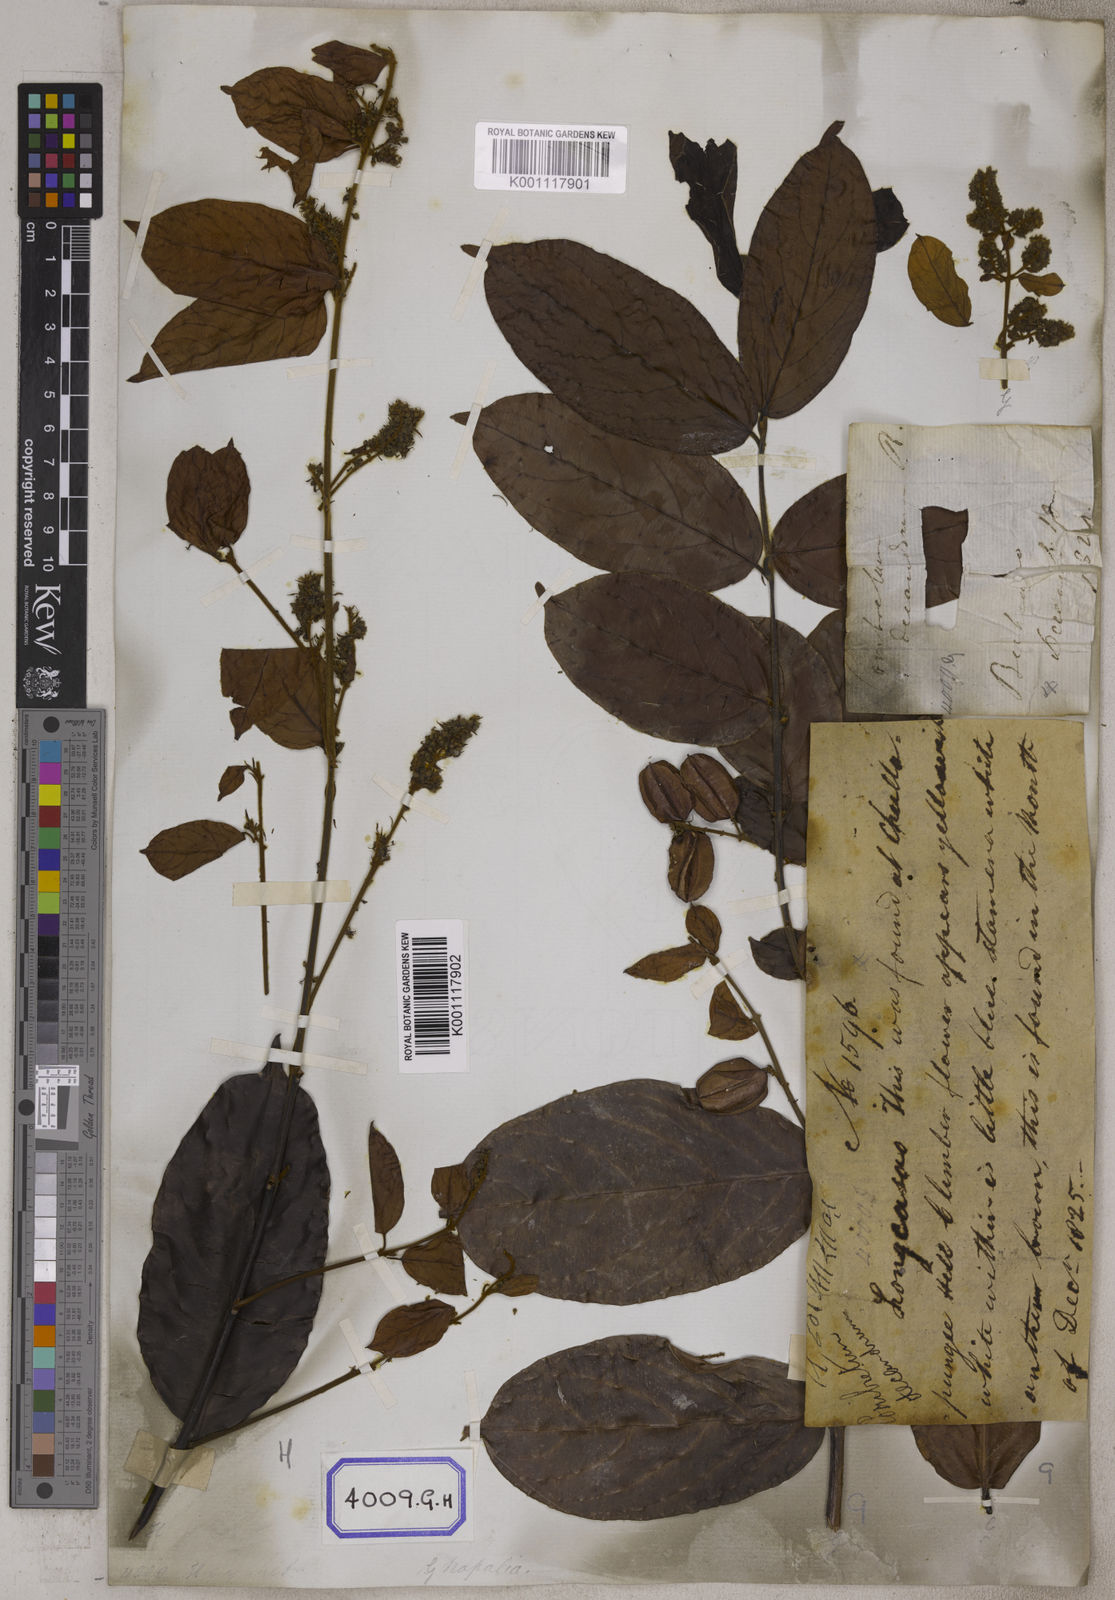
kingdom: Plantae
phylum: Tracheophyta
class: Magnoliopsida
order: Myrtales
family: Combretaceae
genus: Combretum
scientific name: Combretum decandrum
